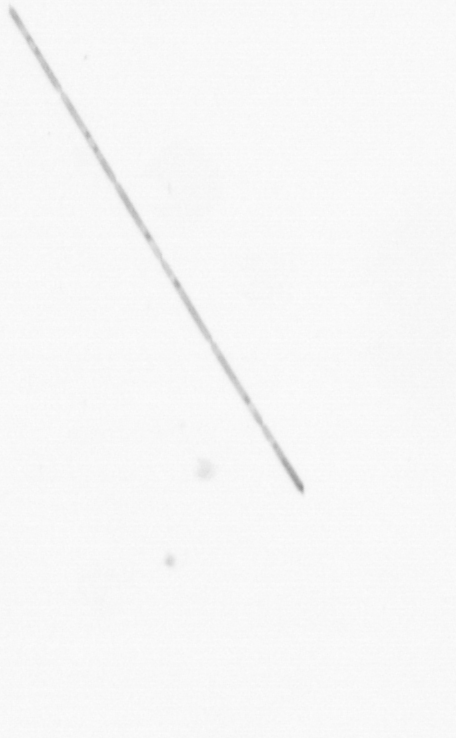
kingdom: Chromista
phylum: Ochrophyta
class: Bacillariophyceae
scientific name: Bacillariophyceae
